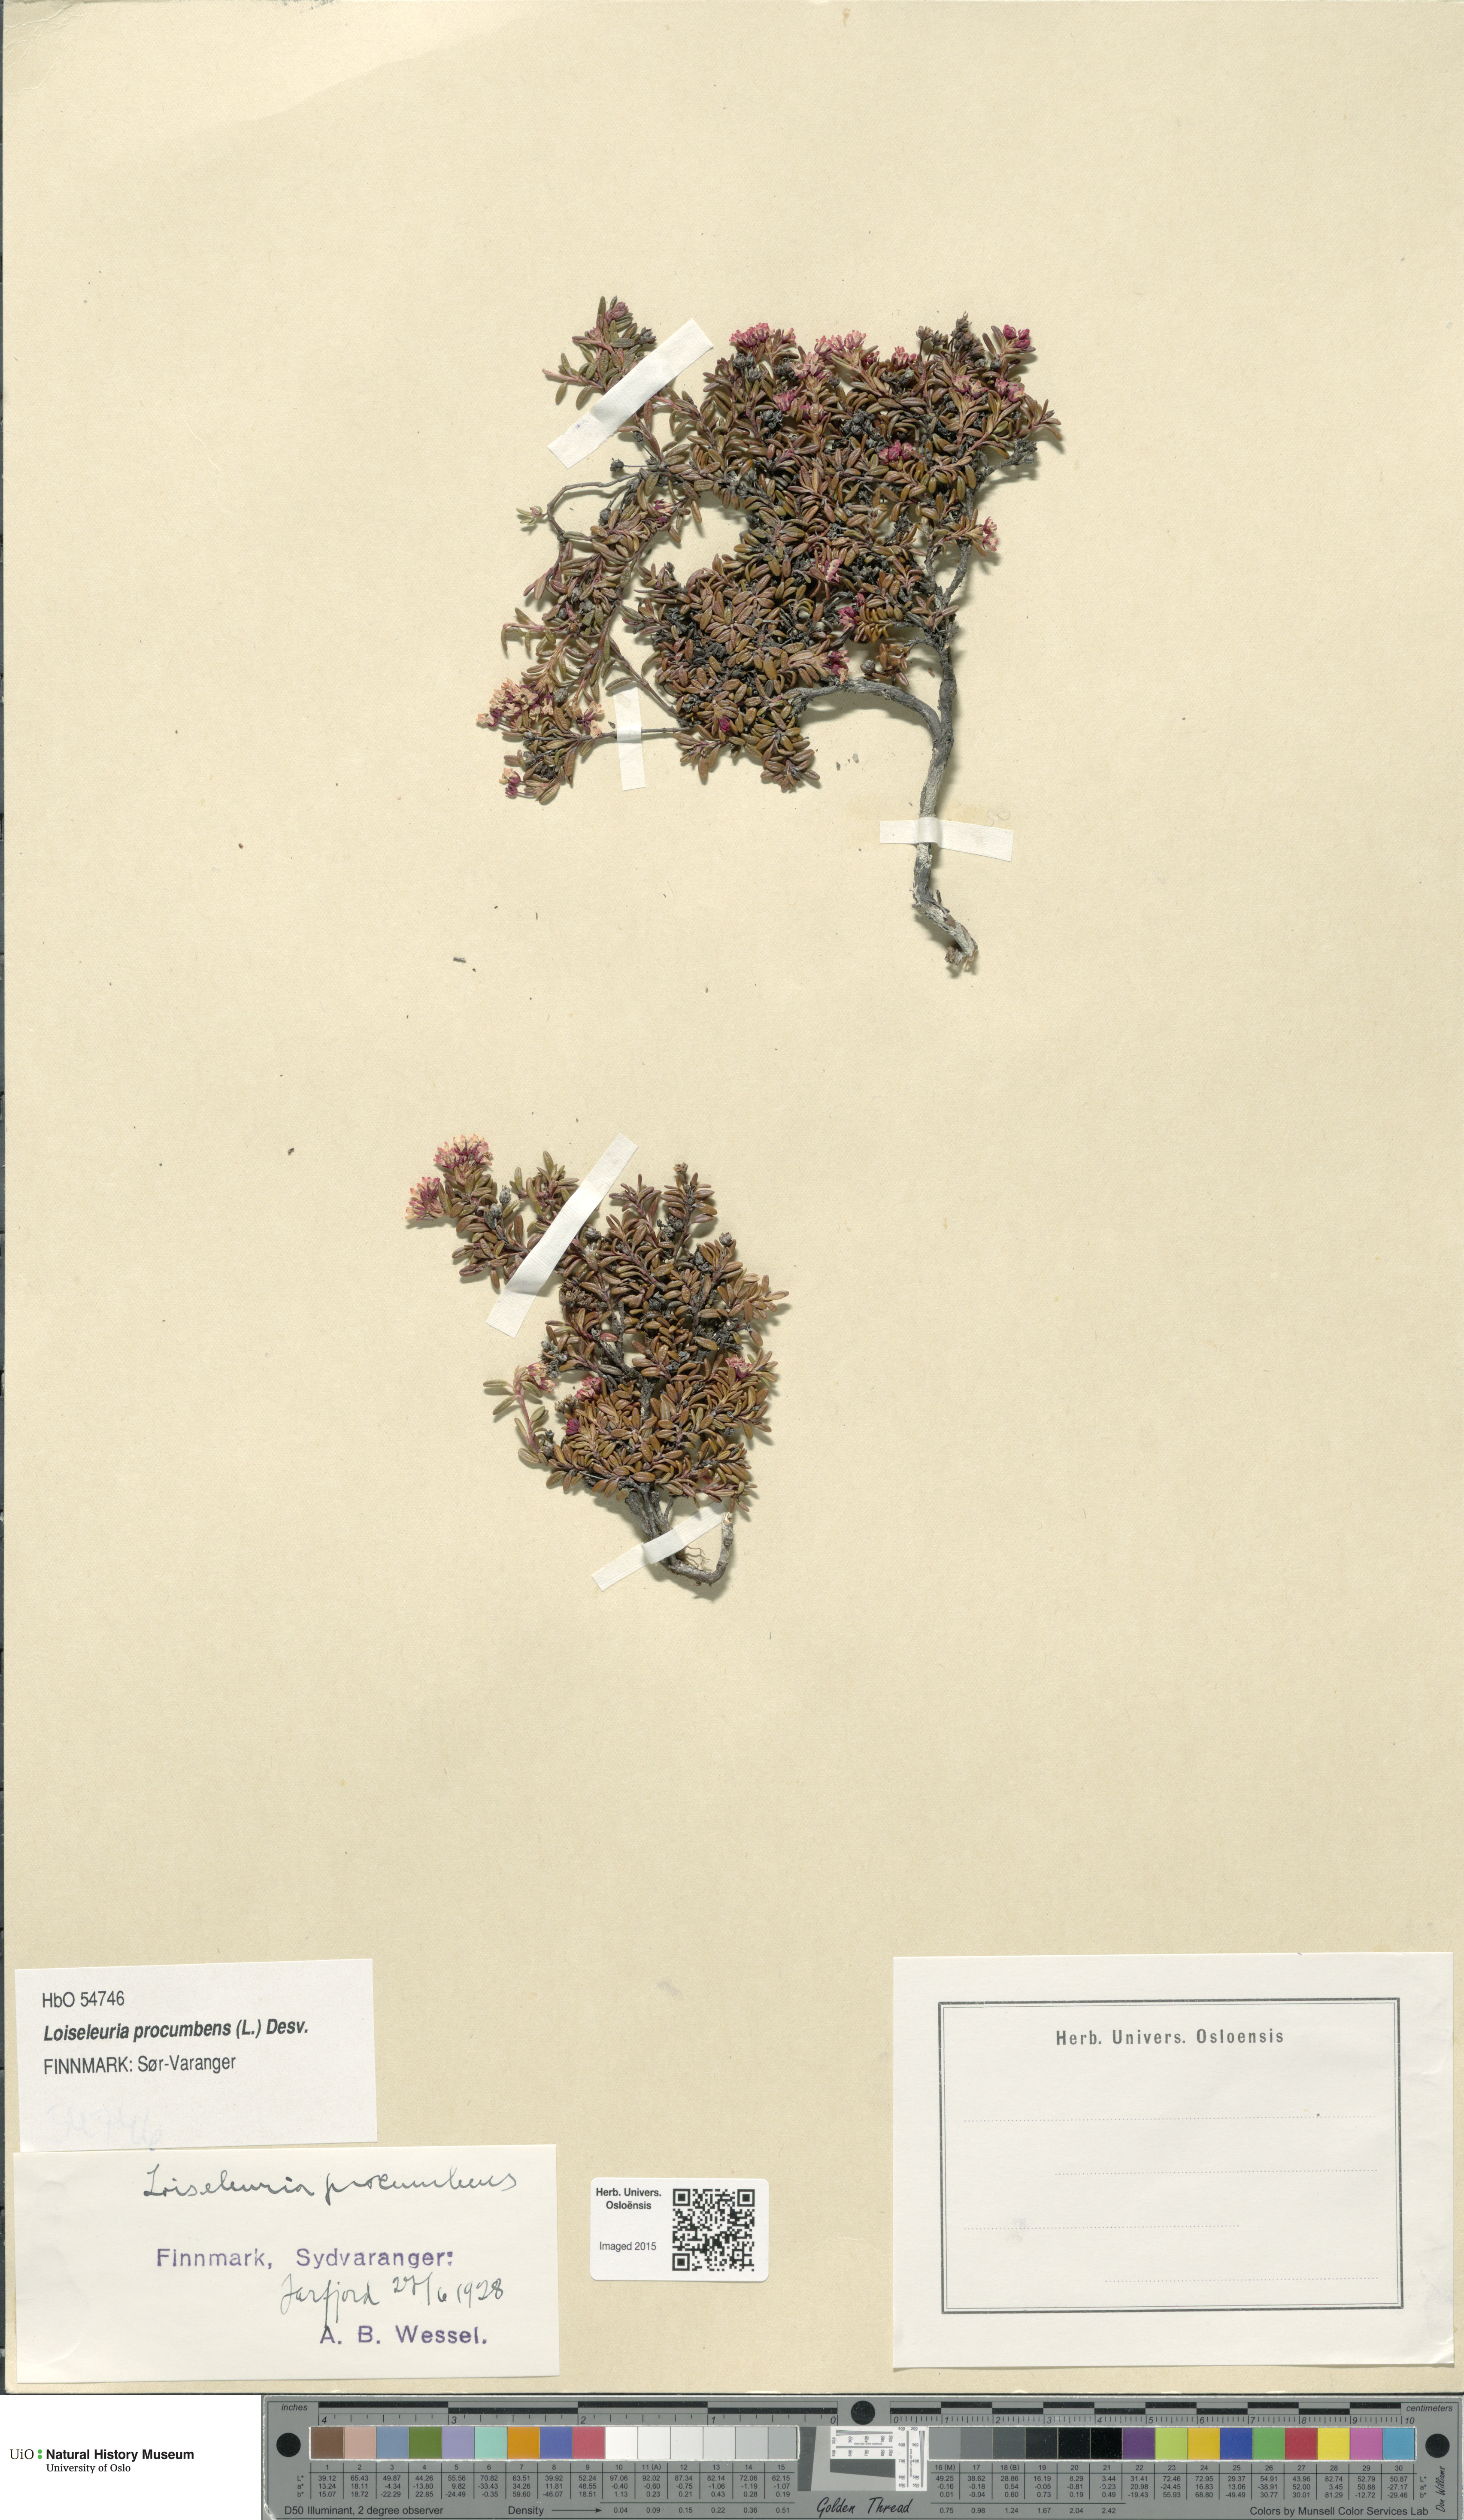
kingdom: Plantae
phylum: Tracheophyta
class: Magnoliopsida
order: Ericales
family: Ericaceae
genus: Kalmia
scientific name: Kalmia procumbens
